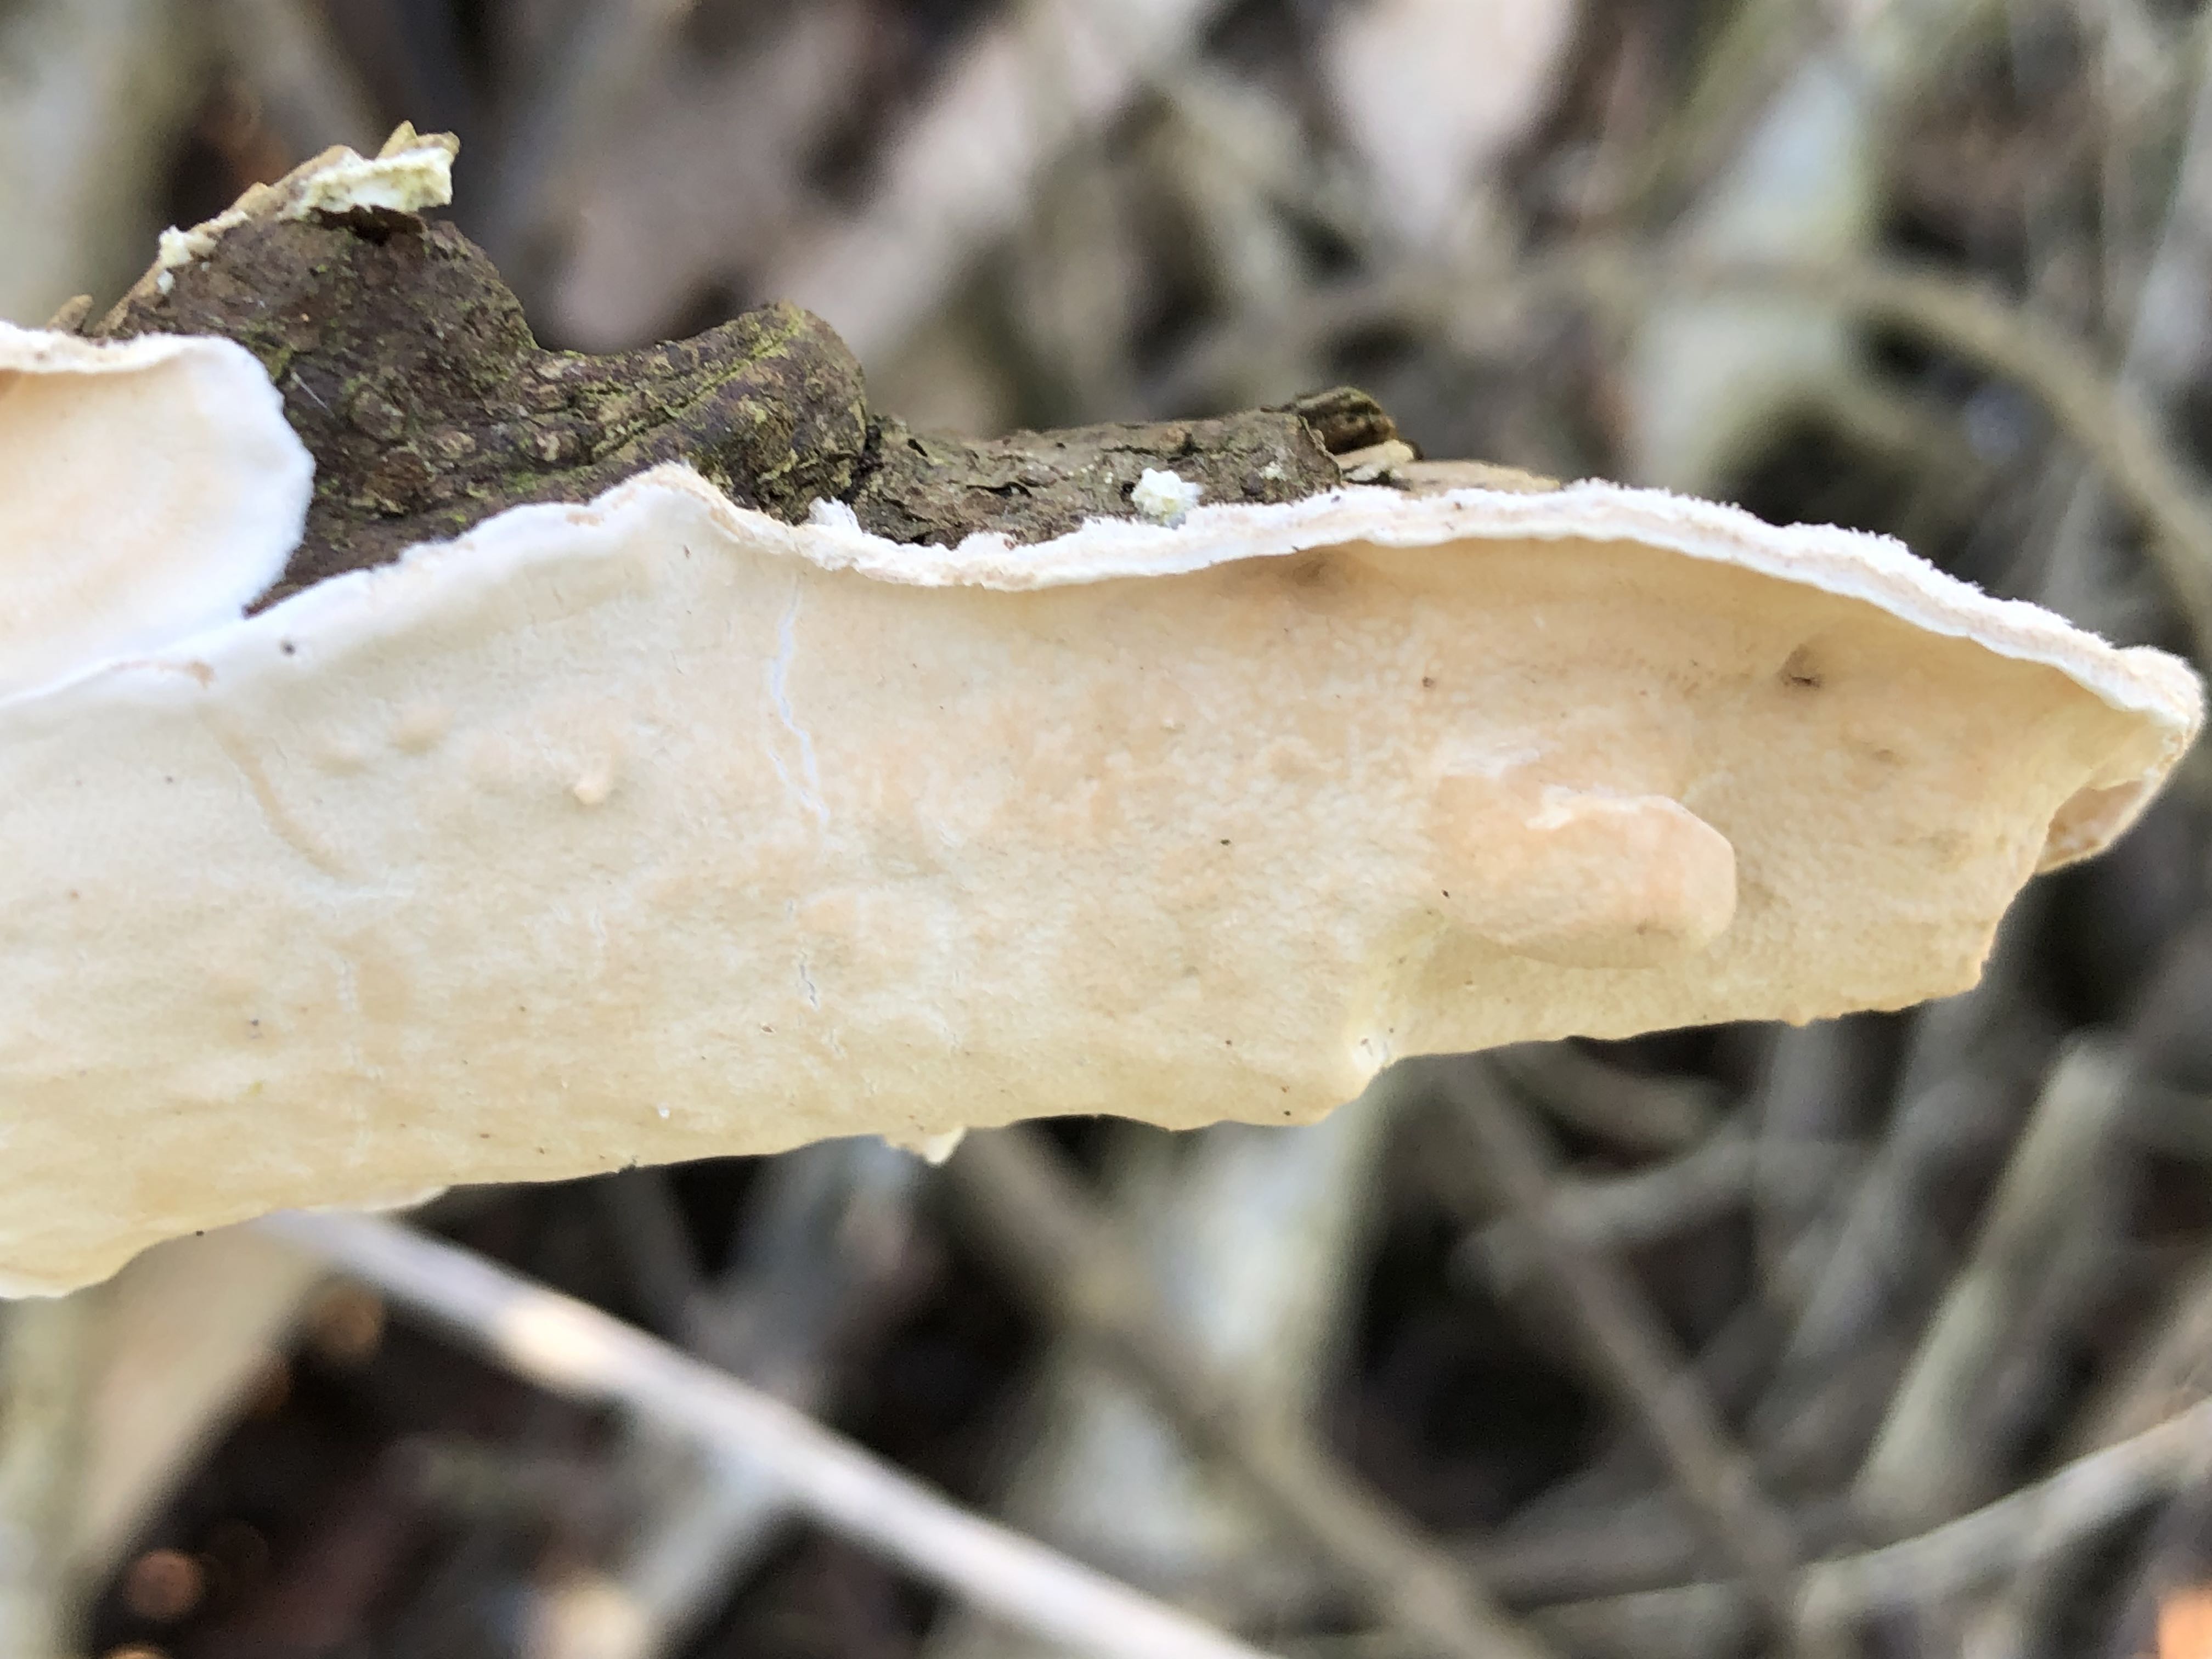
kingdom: Fungi
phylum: Basidiomycota
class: Agaricomycetes
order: Polyporales
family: Irpicaceae
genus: Byssomerulius
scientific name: Byssomerulius corium
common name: læder-åresvamp
